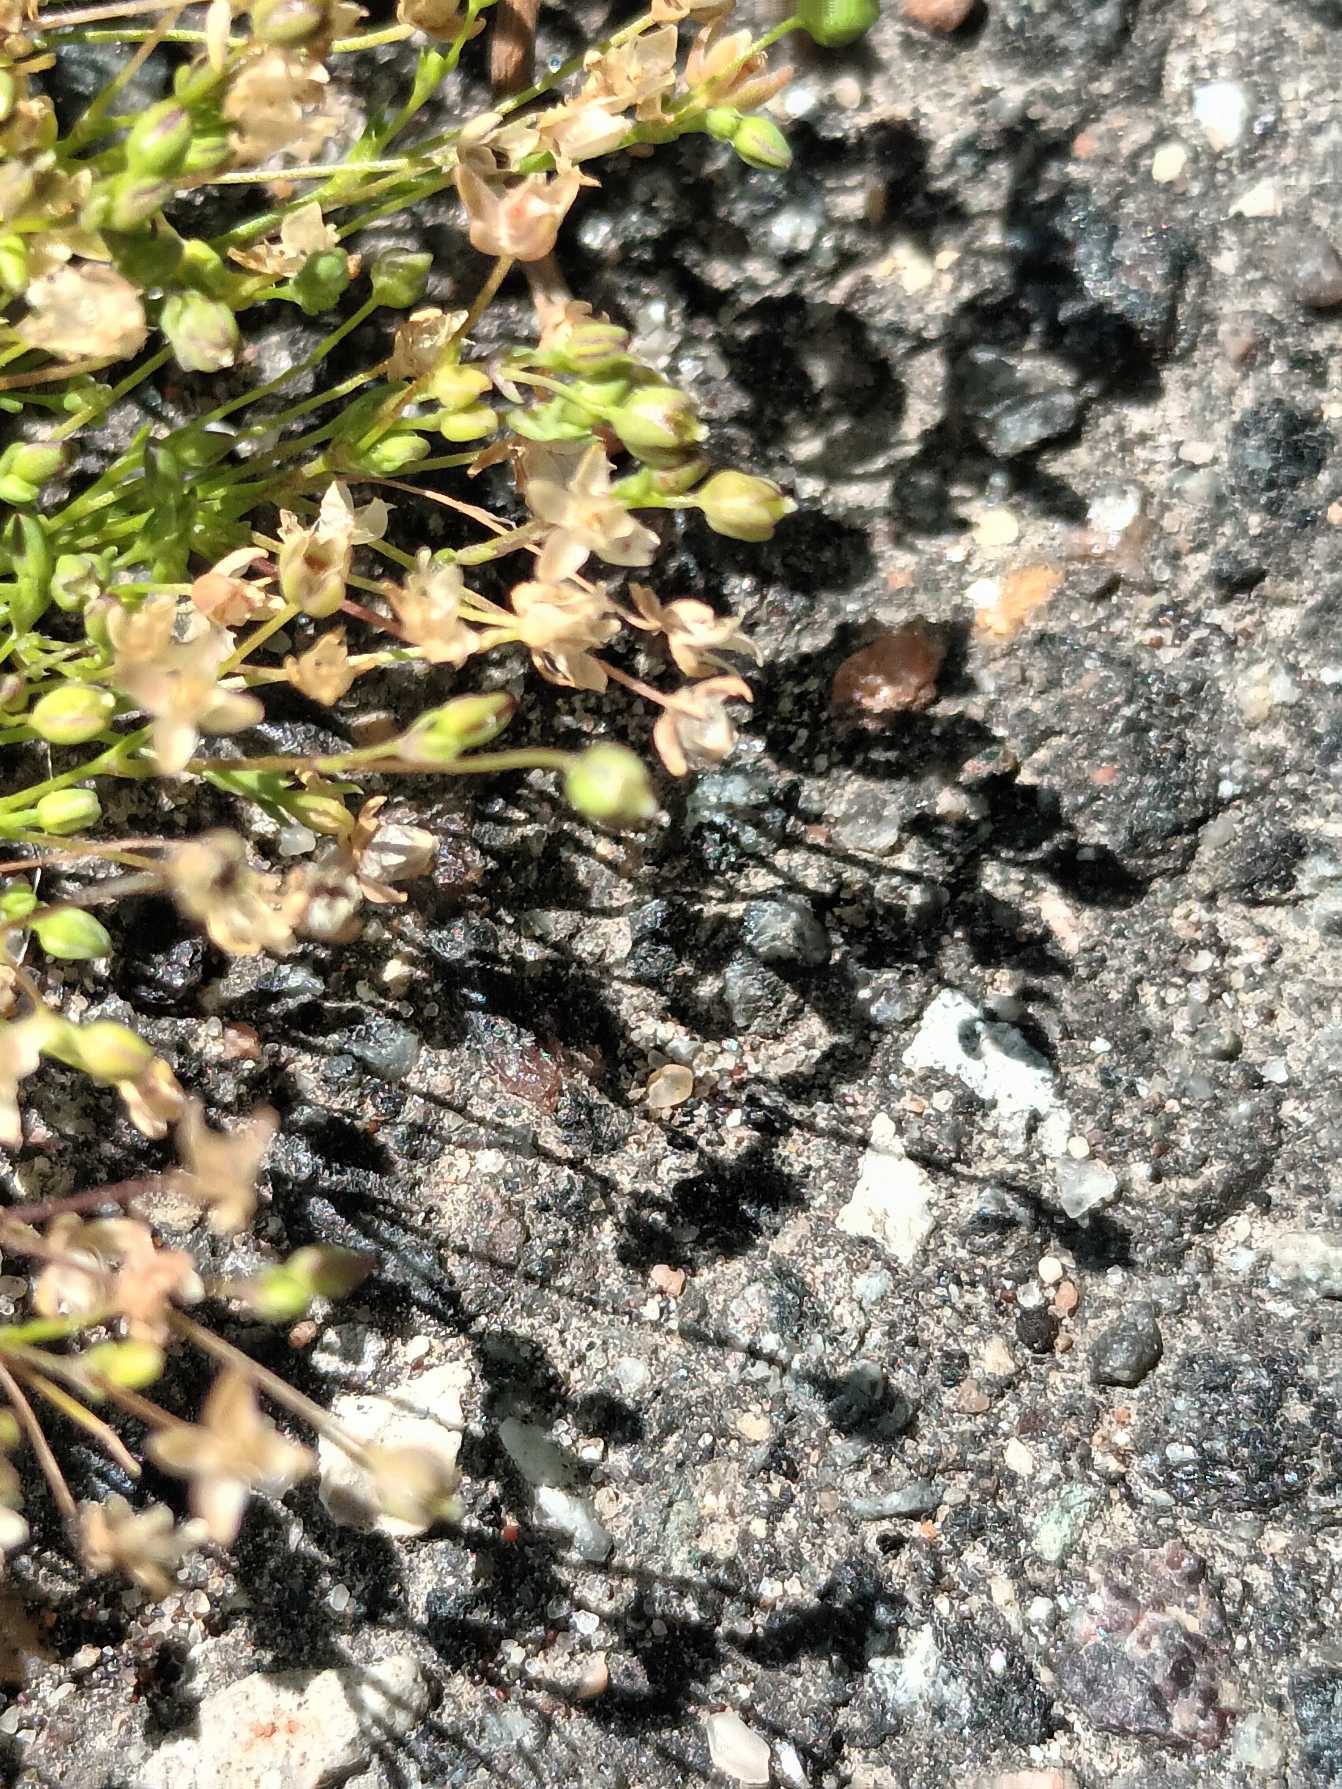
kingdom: Plantae
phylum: Tracheophyta
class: Magnoliopsida
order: Caryophyllales
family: Caryophyllaceae
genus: Sagina
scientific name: Sagina micropetala
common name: Håret firling
